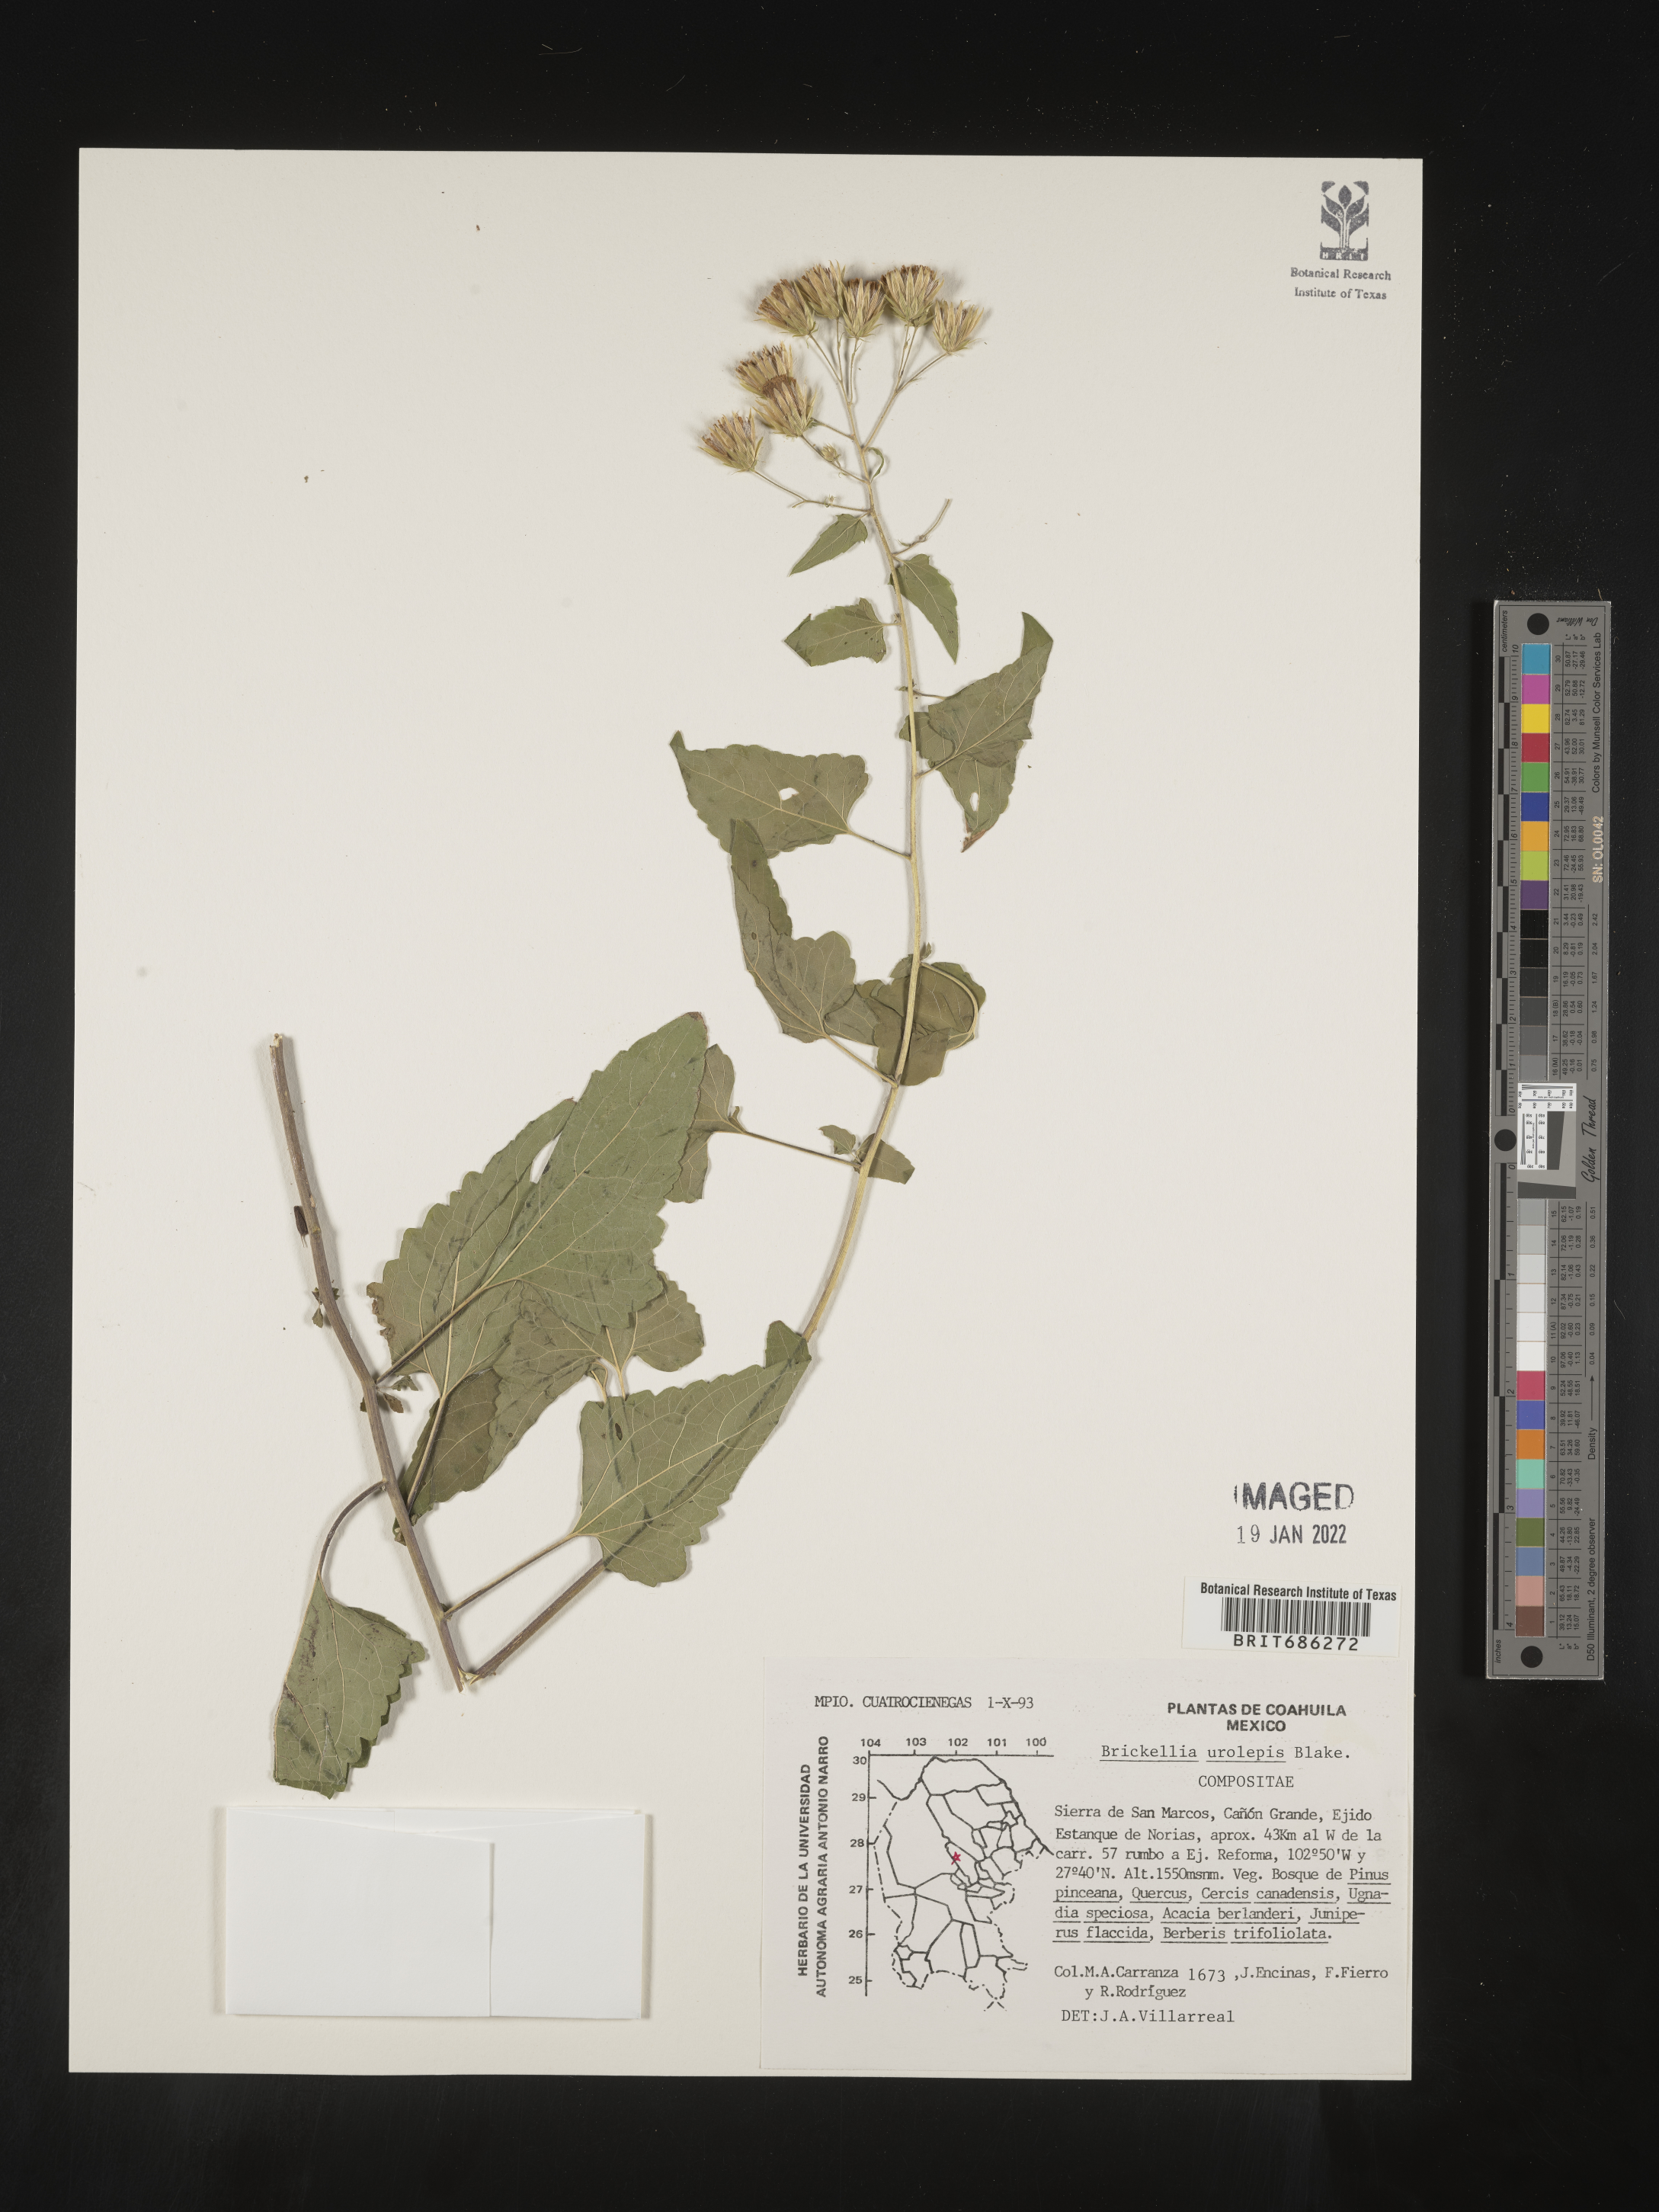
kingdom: Plantae
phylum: Tracheophyta
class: Magnoliopsida
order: Asterales
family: Asteraceae
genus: Brickellia
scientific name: Brickellia urolepis
